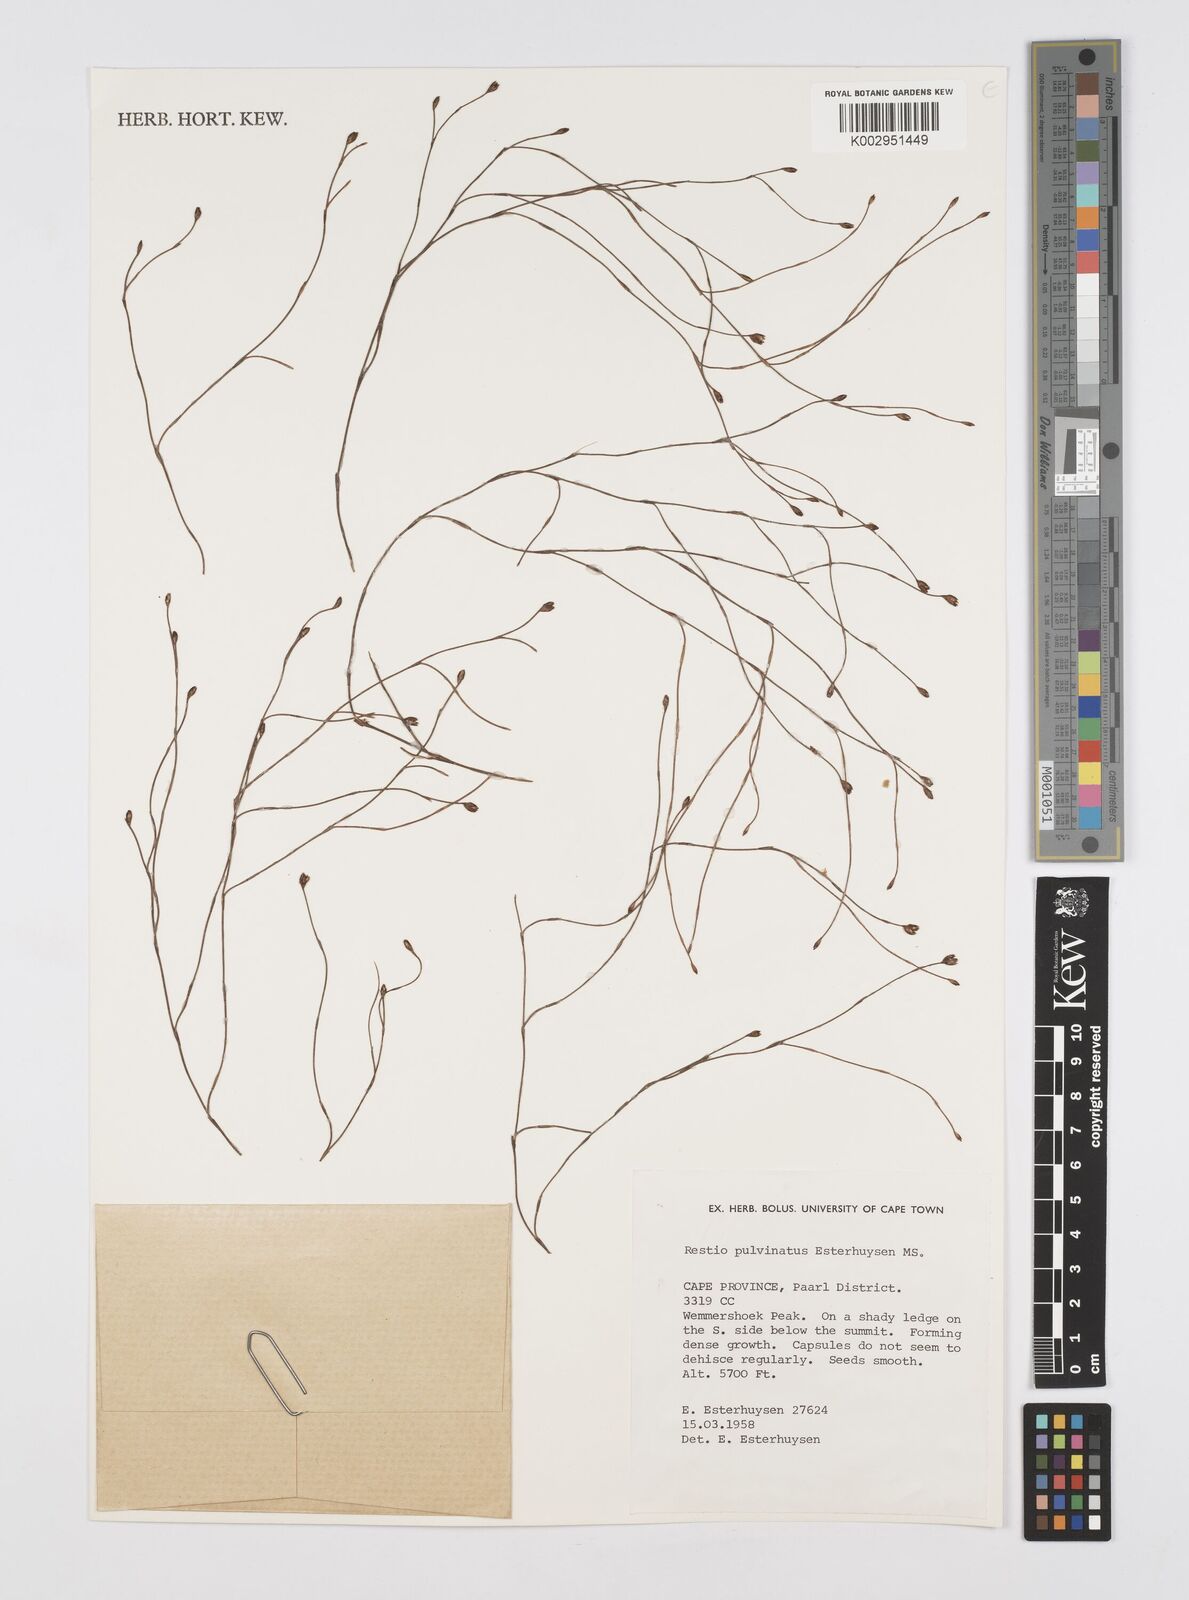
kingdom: Plantae
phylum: Tracheophyta
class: Liliopsida
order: Poales
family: Restionaceae
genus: Restio
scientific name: Restio pulvinatus
